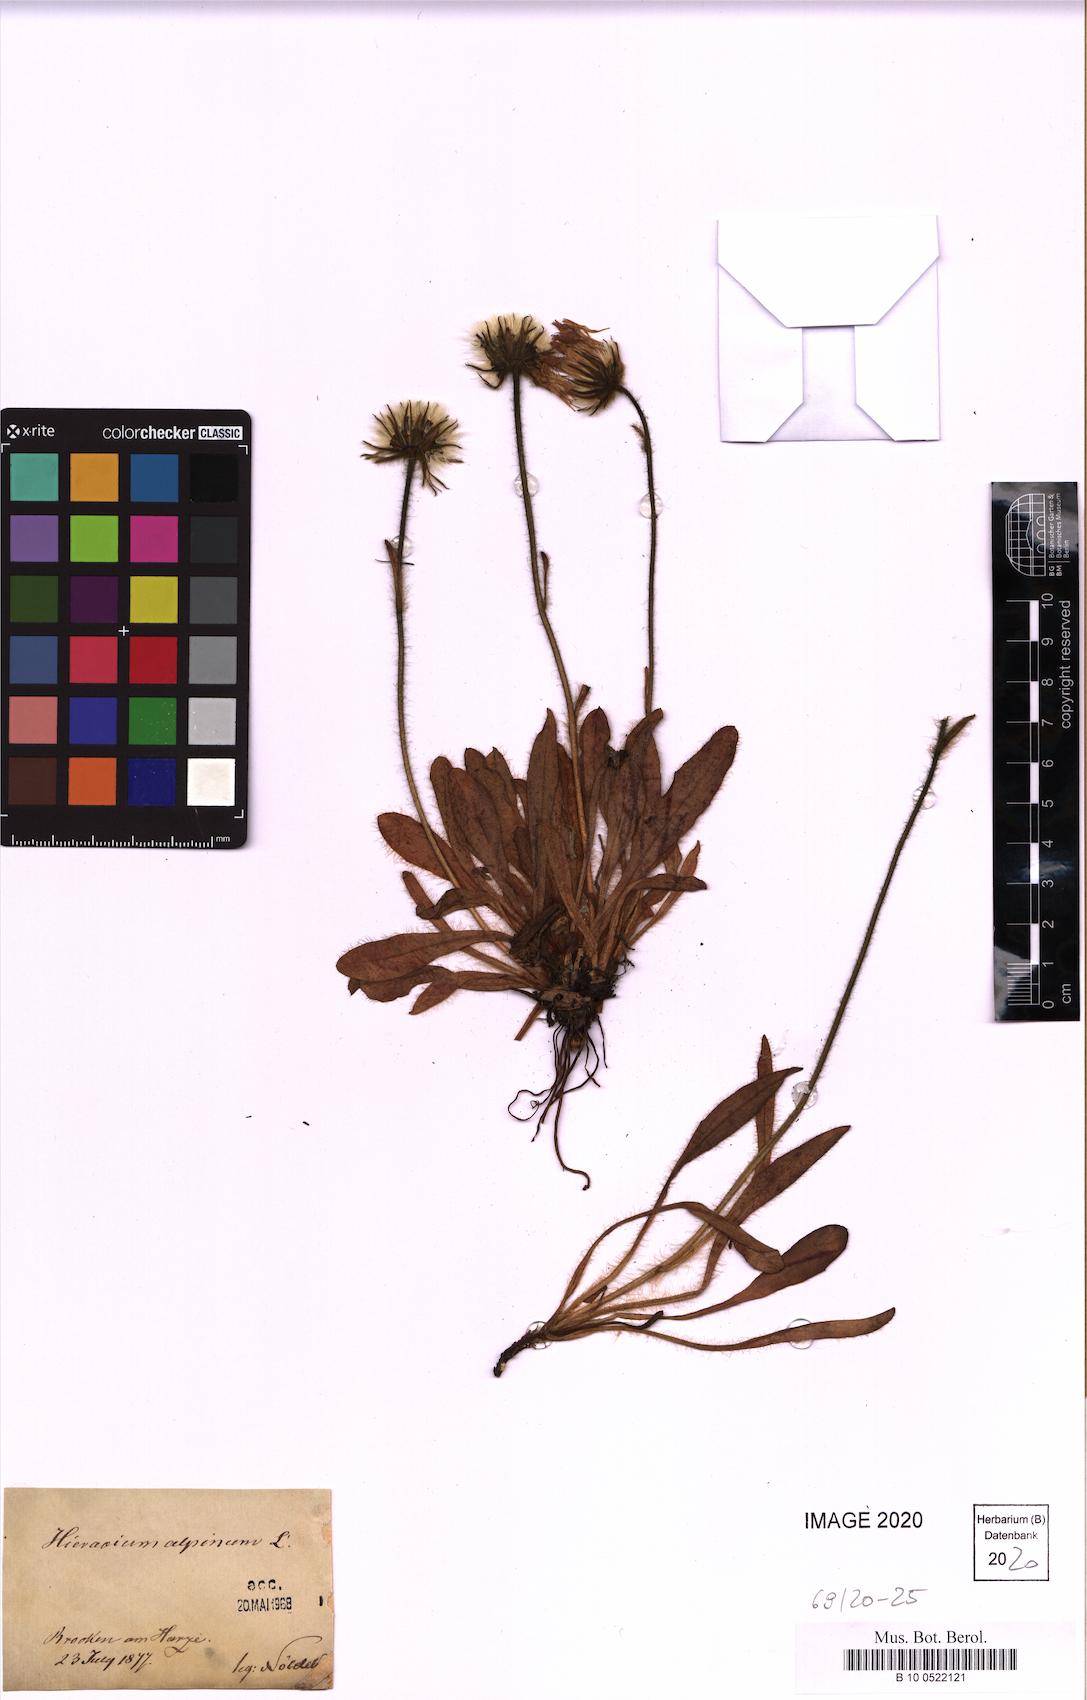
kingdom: Plantae
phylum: Tracheophyta
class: Magnoliopsida
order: Asterales
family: Asteraceae
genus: Hieracium
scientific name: Hieracium alpinum
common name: Alpine hawkweed
